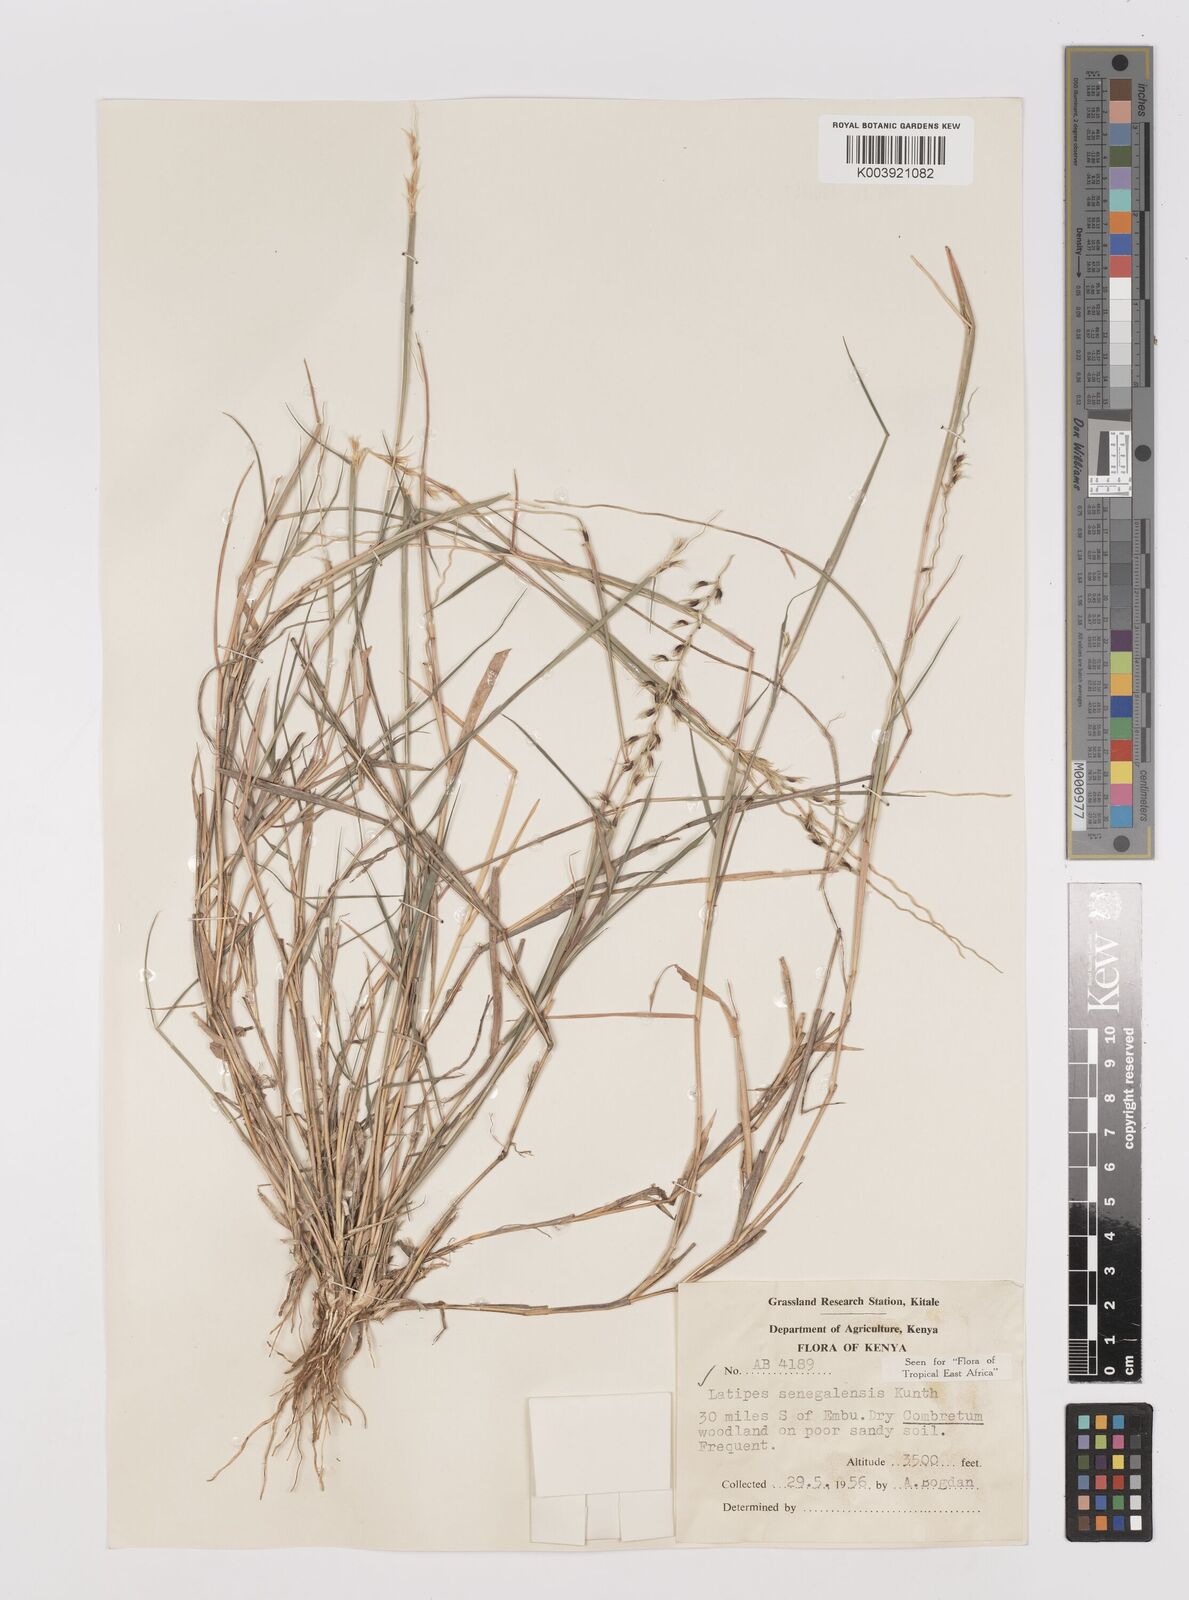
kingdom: Plantae
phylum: Tracheophyta
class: Liliopsida
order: Poales
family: Poaceae
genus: Leptothrium
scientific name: Leptothrium senegalense
